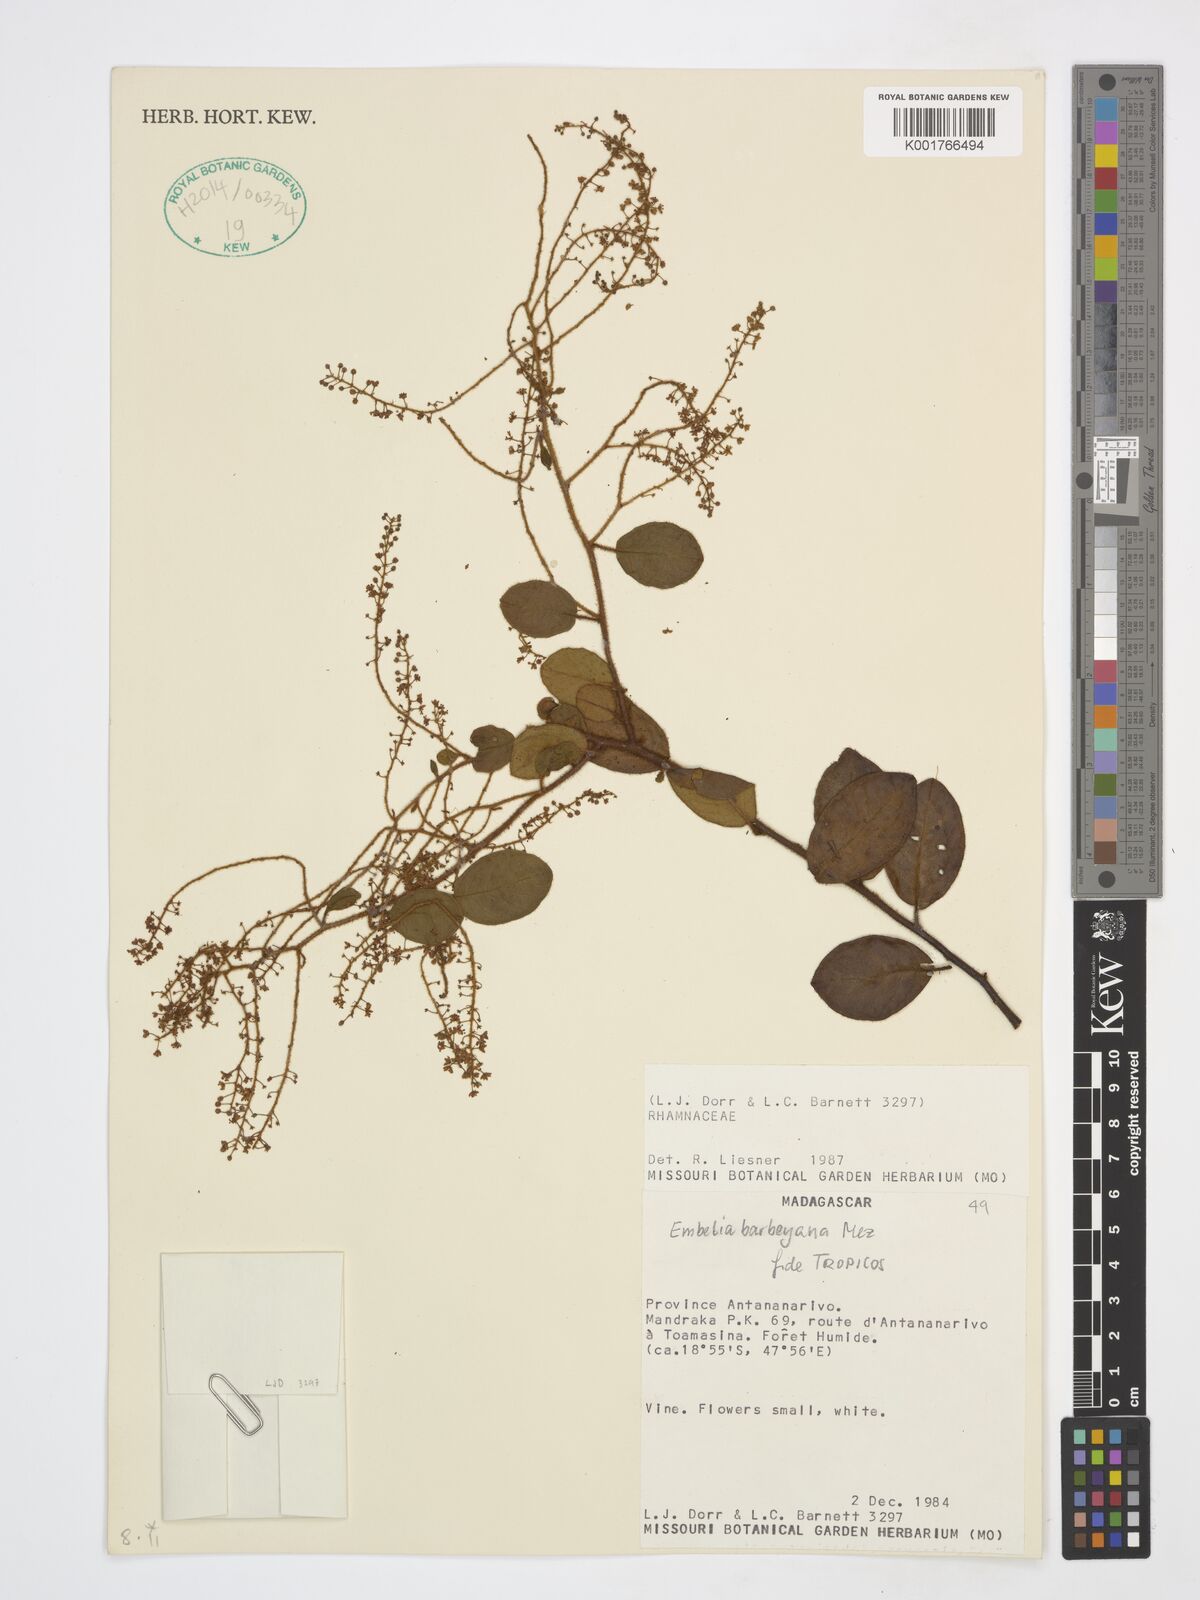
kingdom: Plantae
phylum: Tracheophyta
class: Magnoliopsida
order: Ericales
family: Primulaceae
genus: Embelia
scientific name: Embelia madagascariensis
